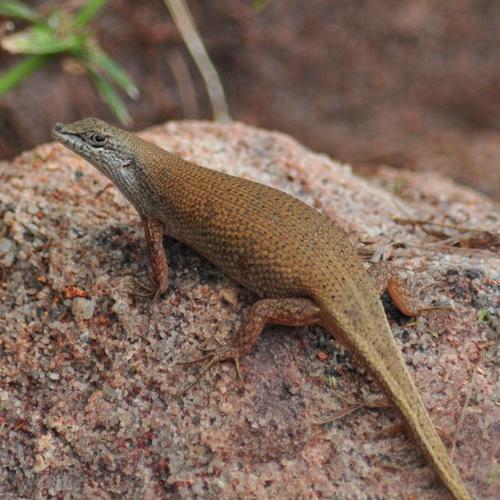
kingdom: Animalia
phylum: Chordata
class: Squamata
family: Scincidae
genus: Trachylepis
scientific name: Trachylepis lacertiformis
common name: Bronze rock skink
